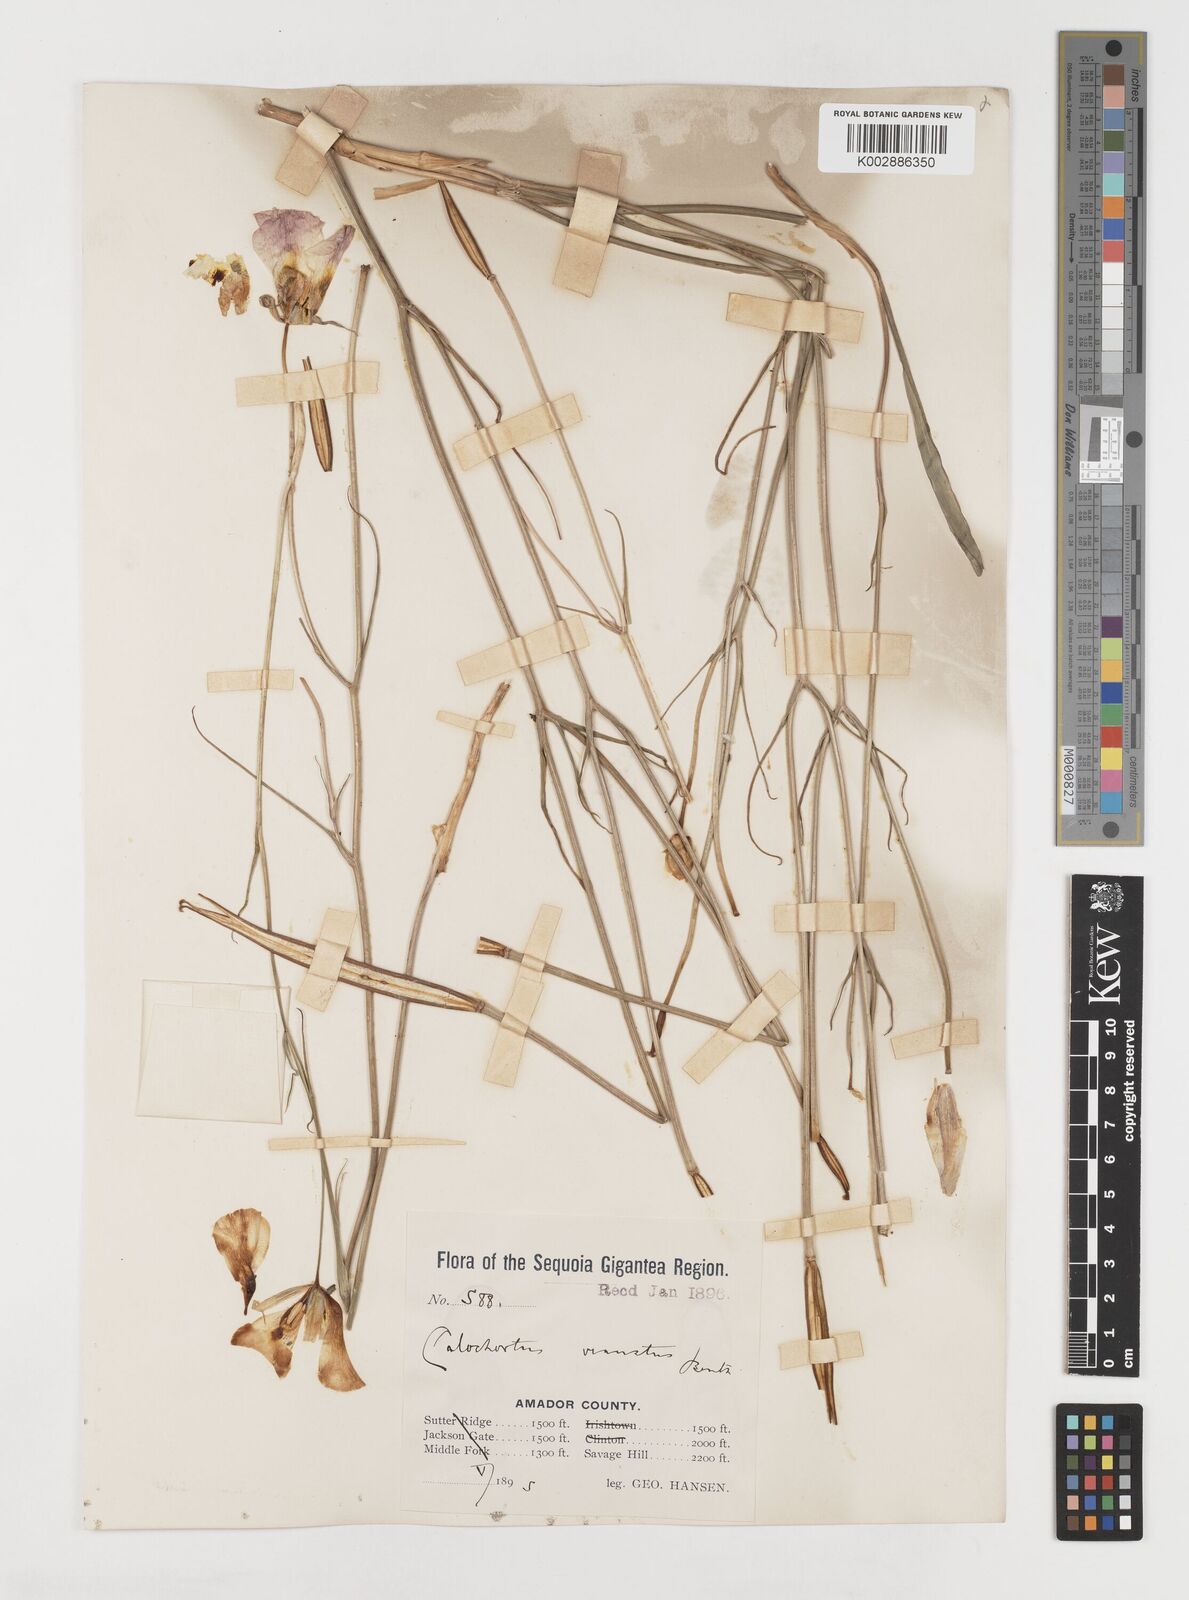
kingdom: Plantae
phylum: Tracheophyta
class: Liliopsida
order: Liliales
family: Liliaceae
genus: Calochortus
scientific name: Calochortus venustus
